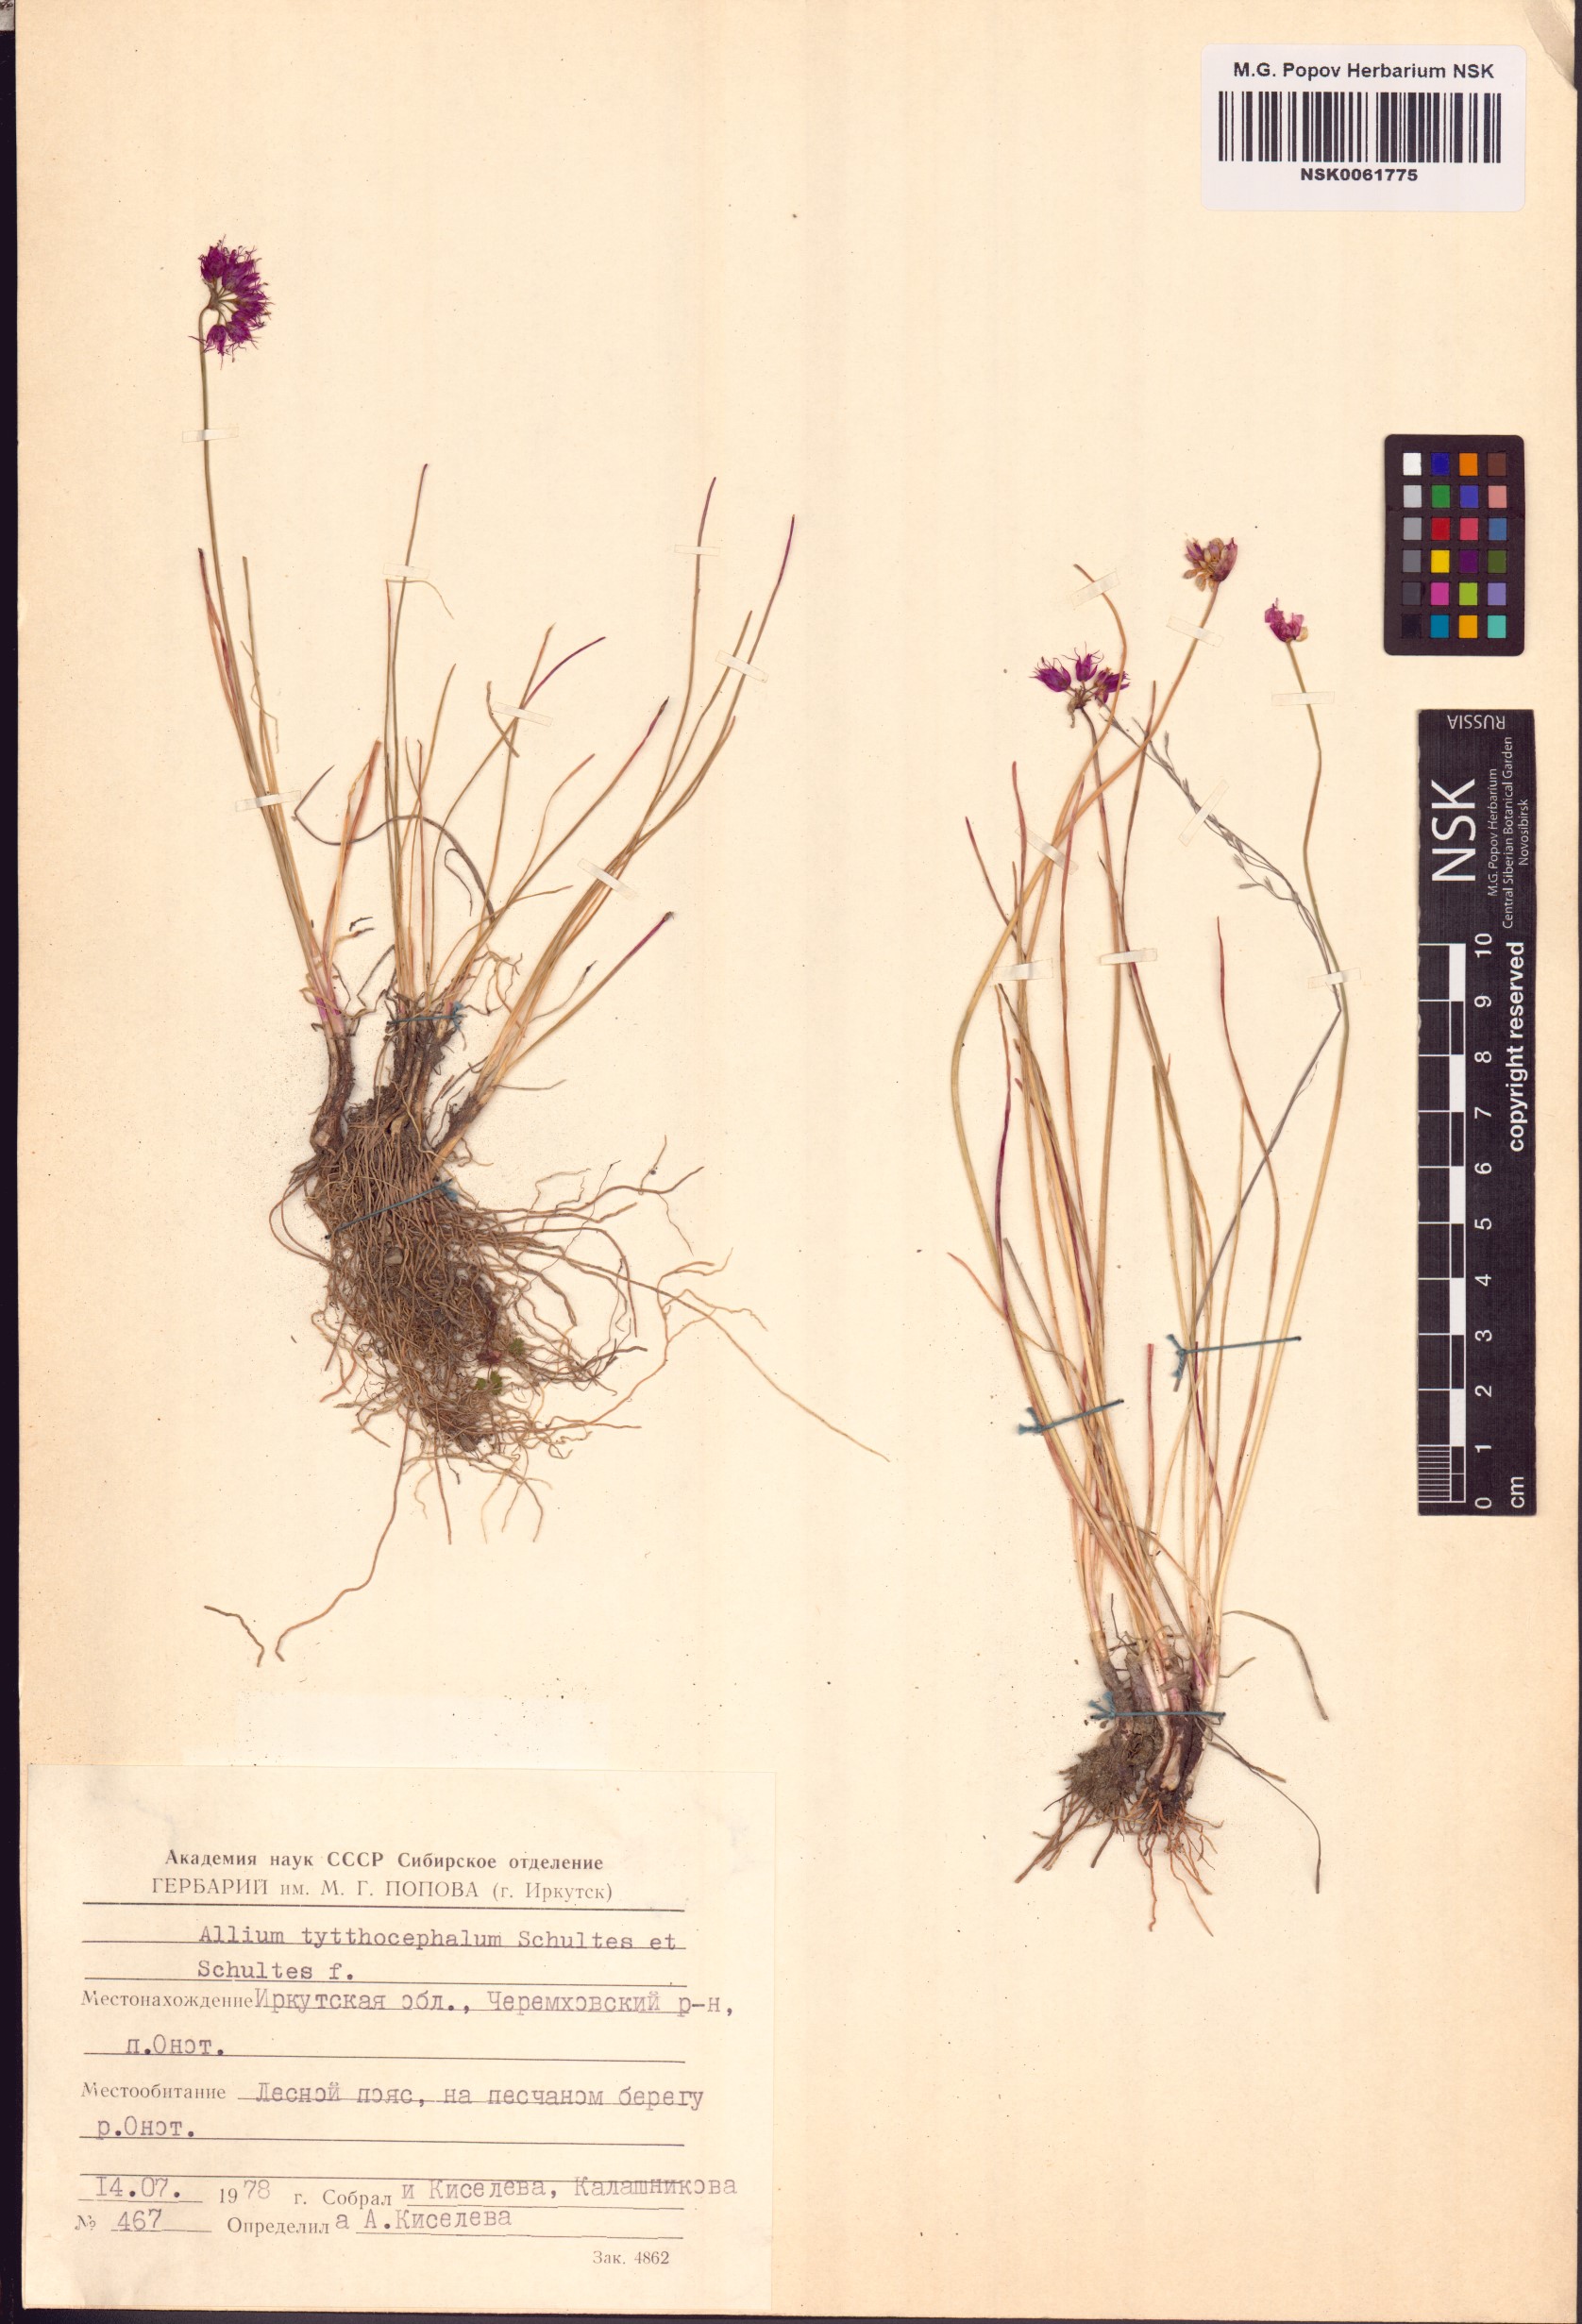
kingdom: Plantae
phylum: Tracheophyta
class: Liliopsida
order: Asparagales
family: Amaryllidaceae
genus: Allium
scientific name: Allium tytthocephalum
